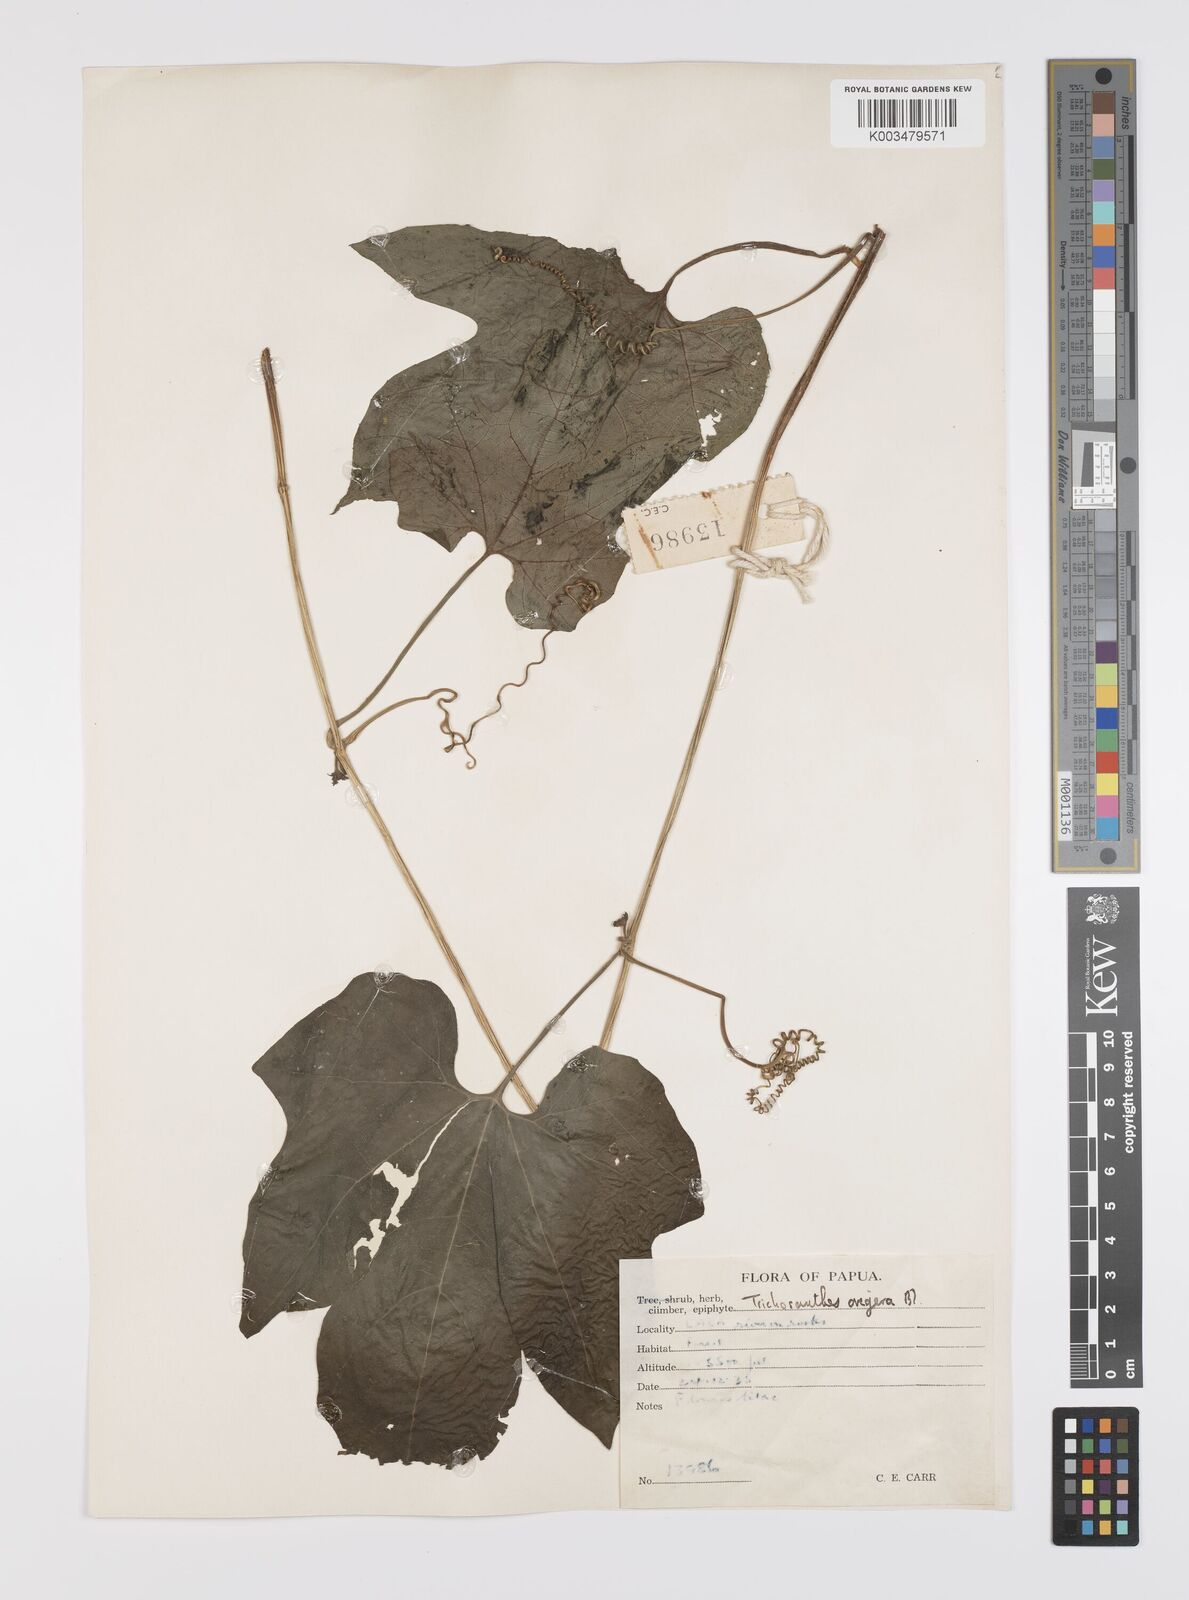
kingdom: Plantae
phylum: Tracheophyta
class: Magnoliopsida
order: Cucurbitales
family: Cucurbitaceae
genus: Trichosanthes
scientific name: Trichosanthes ovigera
